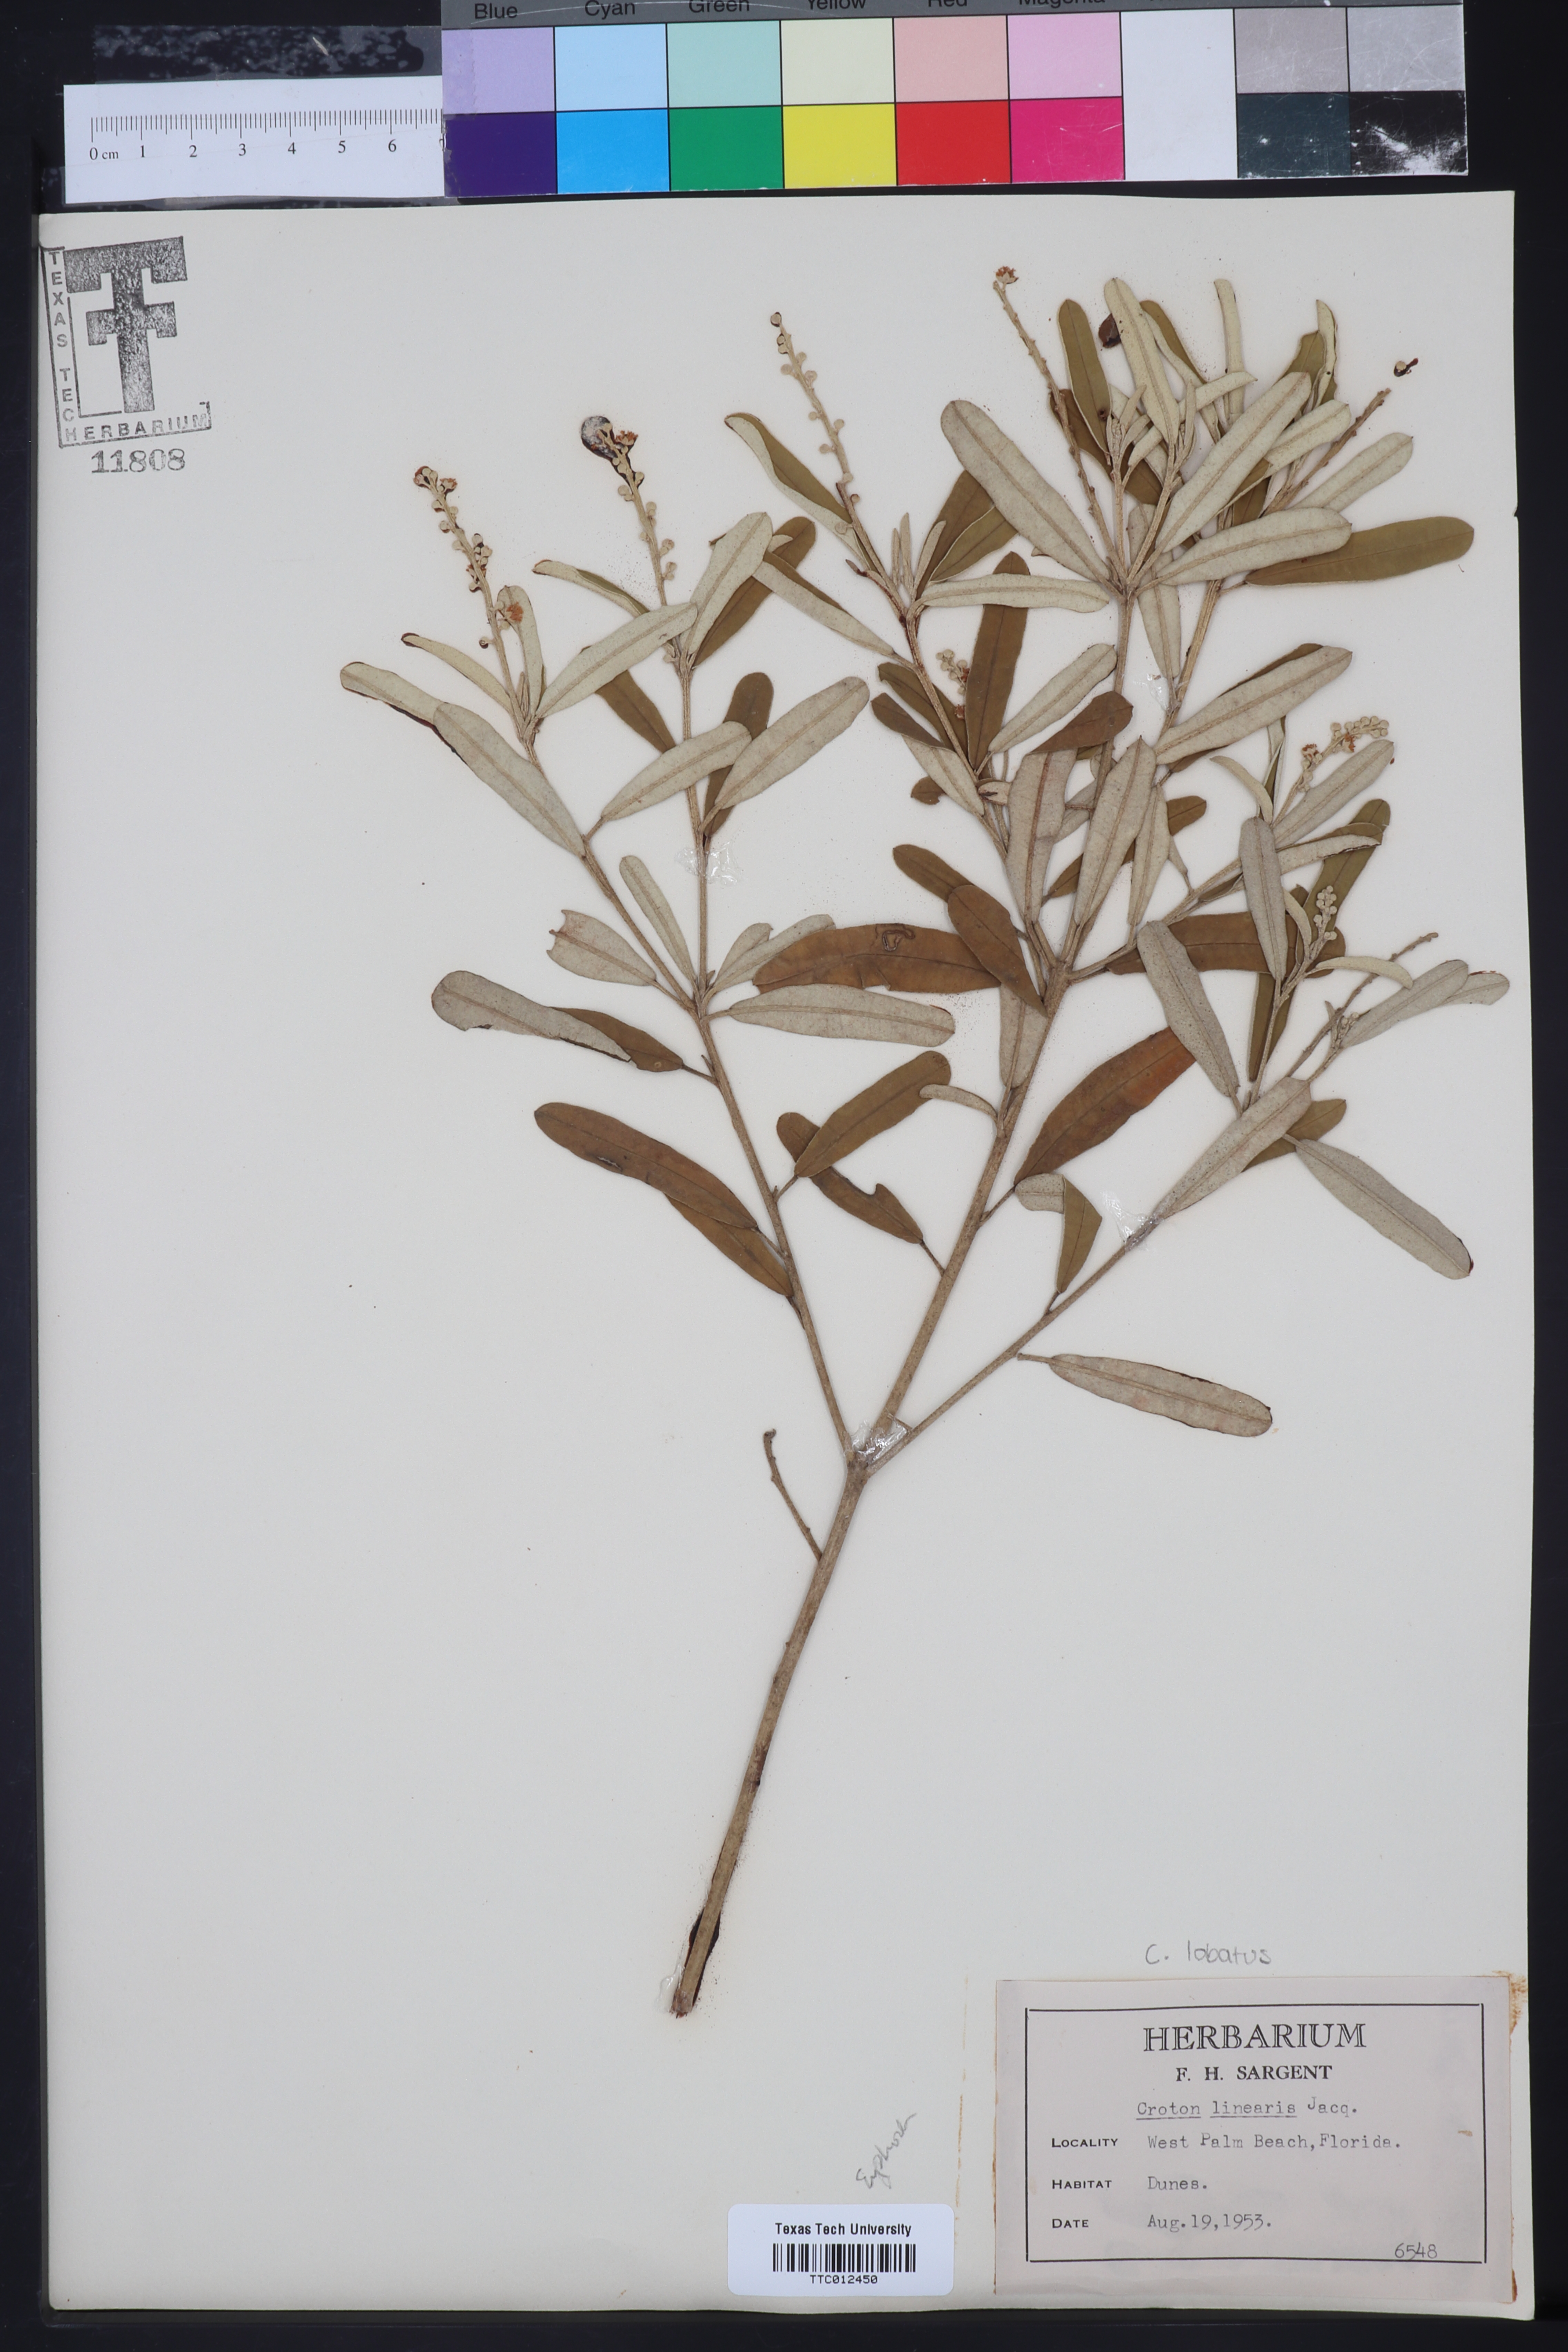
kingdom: Plantae
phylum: Tracheophyta
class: Magnoliopsida
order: Malpighiales
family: Euphorbiaceae
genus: Croton
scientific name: Croton linearis
